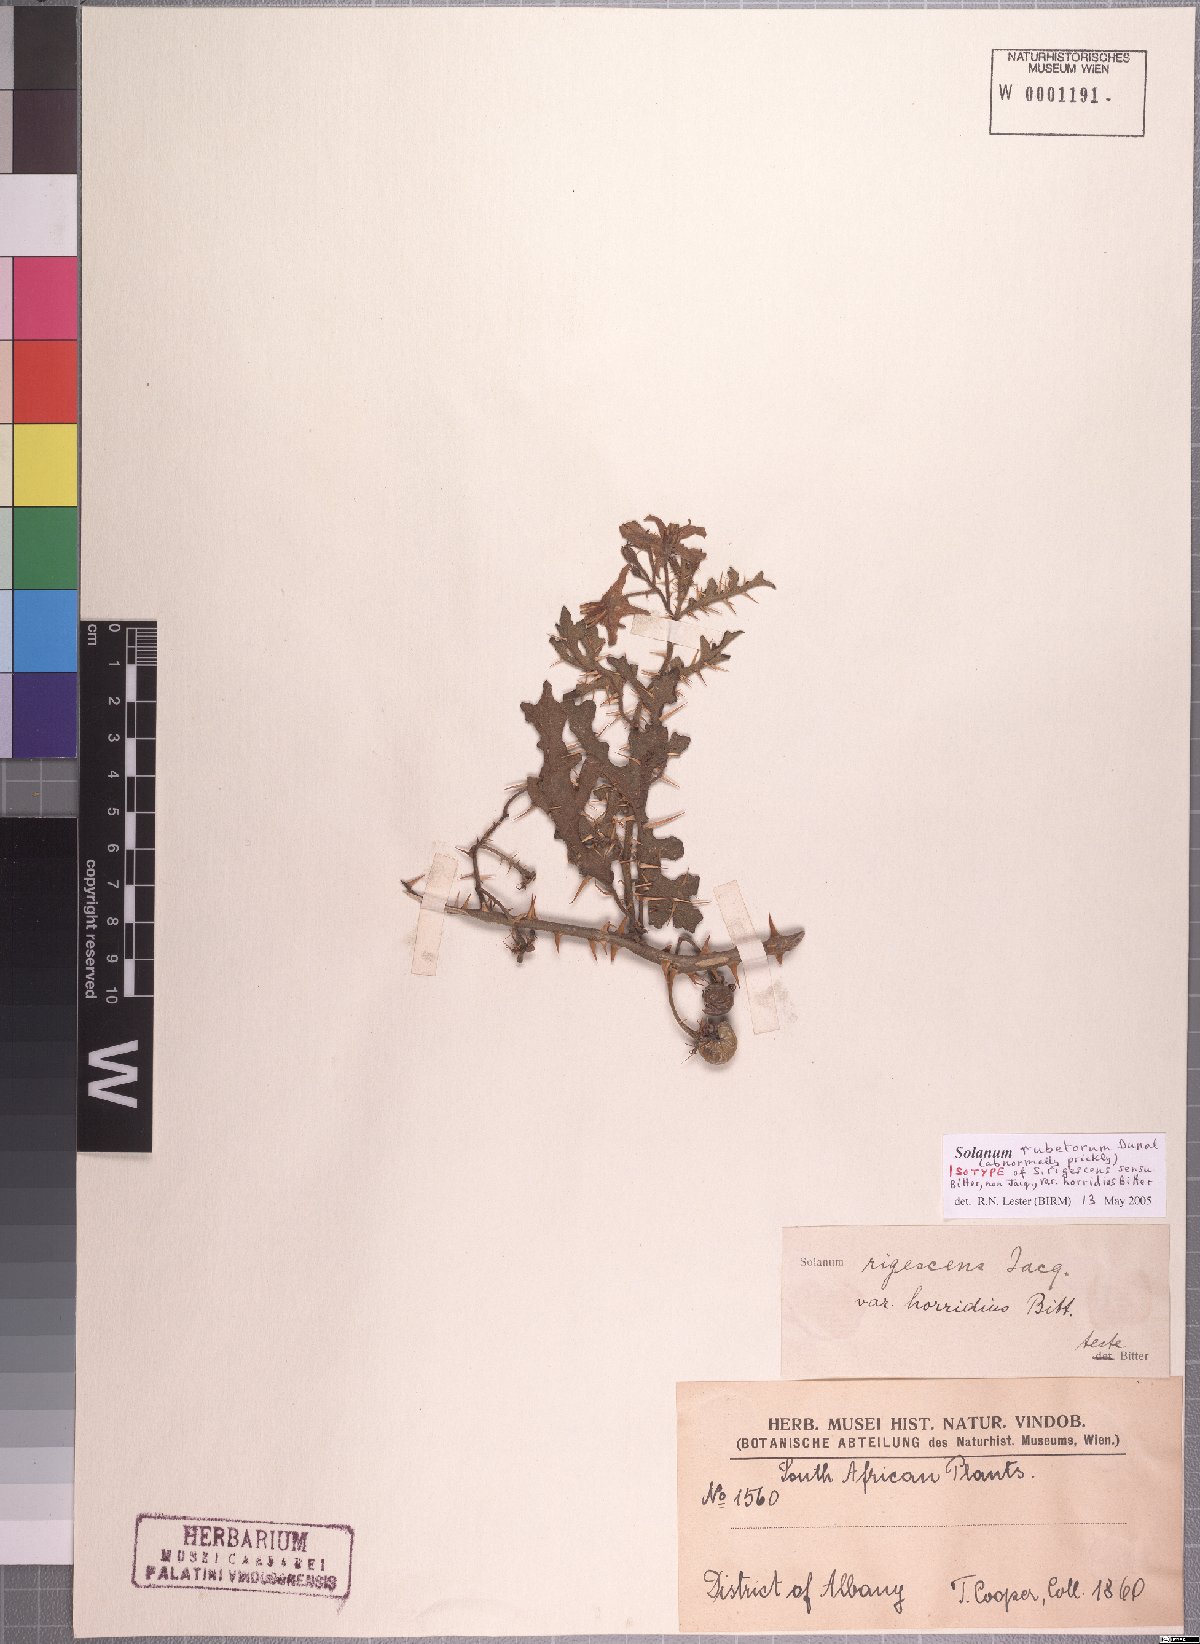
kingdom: Plantae
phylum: Tracheophyta
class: Magnoliopsida
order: Solanales
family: Solanaceae
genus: Solanum
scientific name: Solanum rubetorum
